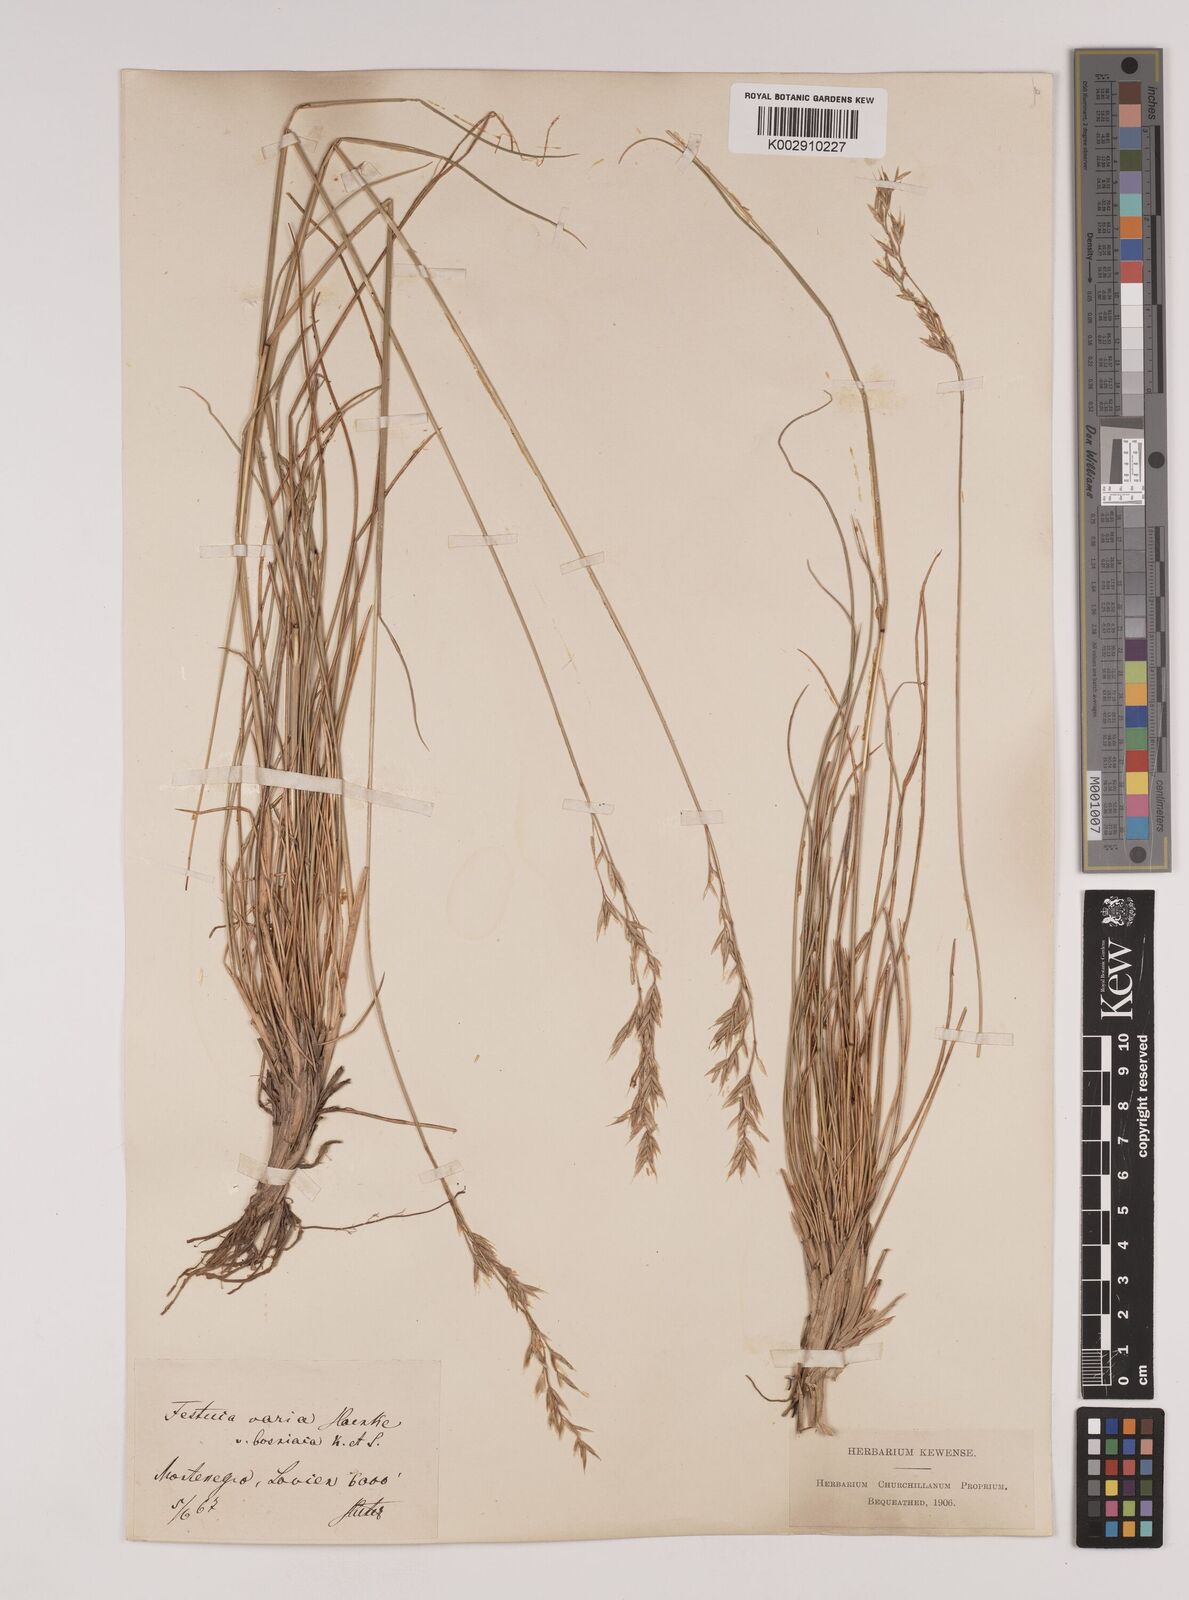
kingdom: Plantae
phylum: Tracheophyta
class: Liliopsida
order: Poales
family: Poaceae
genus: Festuca
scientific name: Festuca bosniaca
